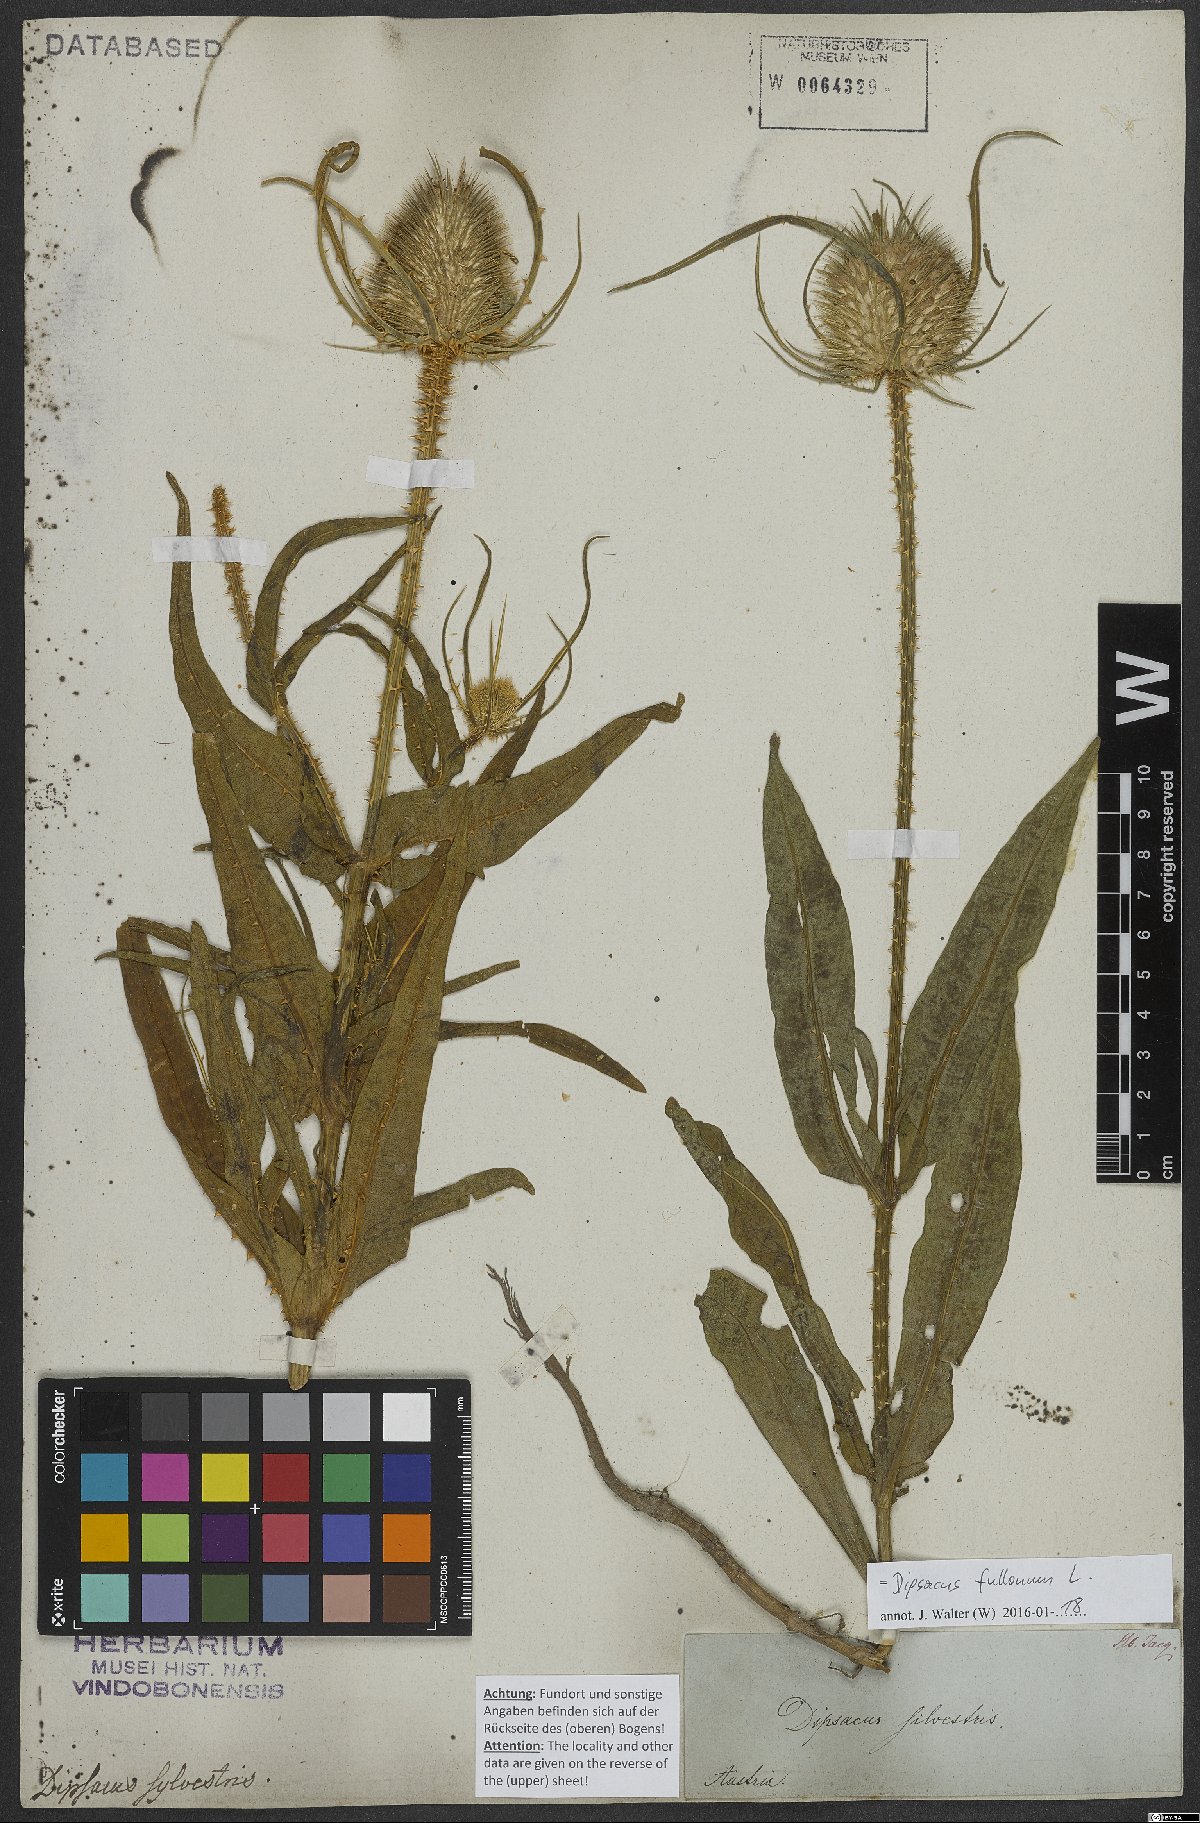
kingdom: Plantae
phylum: Tracheophyta
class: Magnoliopsida
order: Dipsacales
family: Caprifoliaceae
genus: Dipsacus
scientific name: Dipsacus fullonum
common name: Teasel
